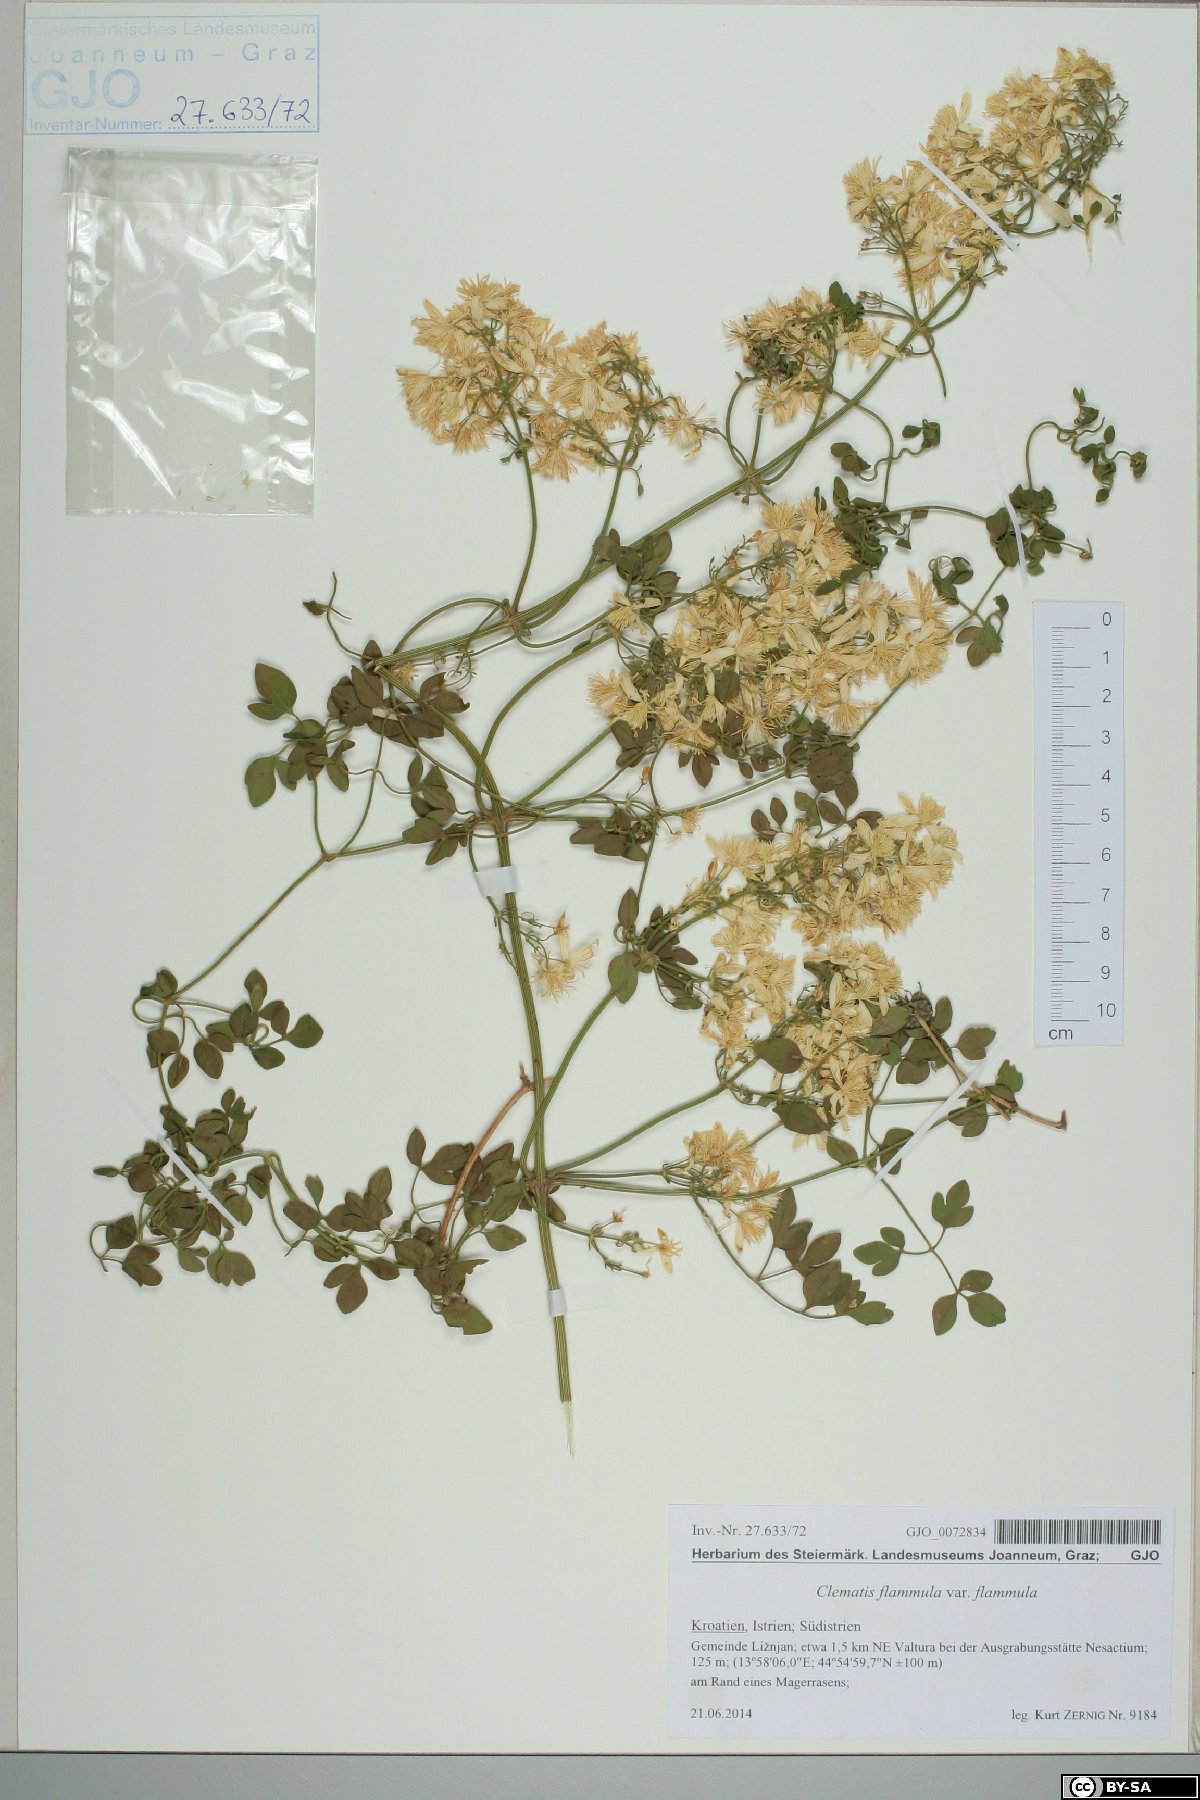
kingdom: Plantae
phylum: Tracheophyta
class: Magnoliopsida
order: Ranunculales
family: Ranunculaceae
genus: Clematis
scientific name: Clematis flammula
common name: Virgin's-bower
